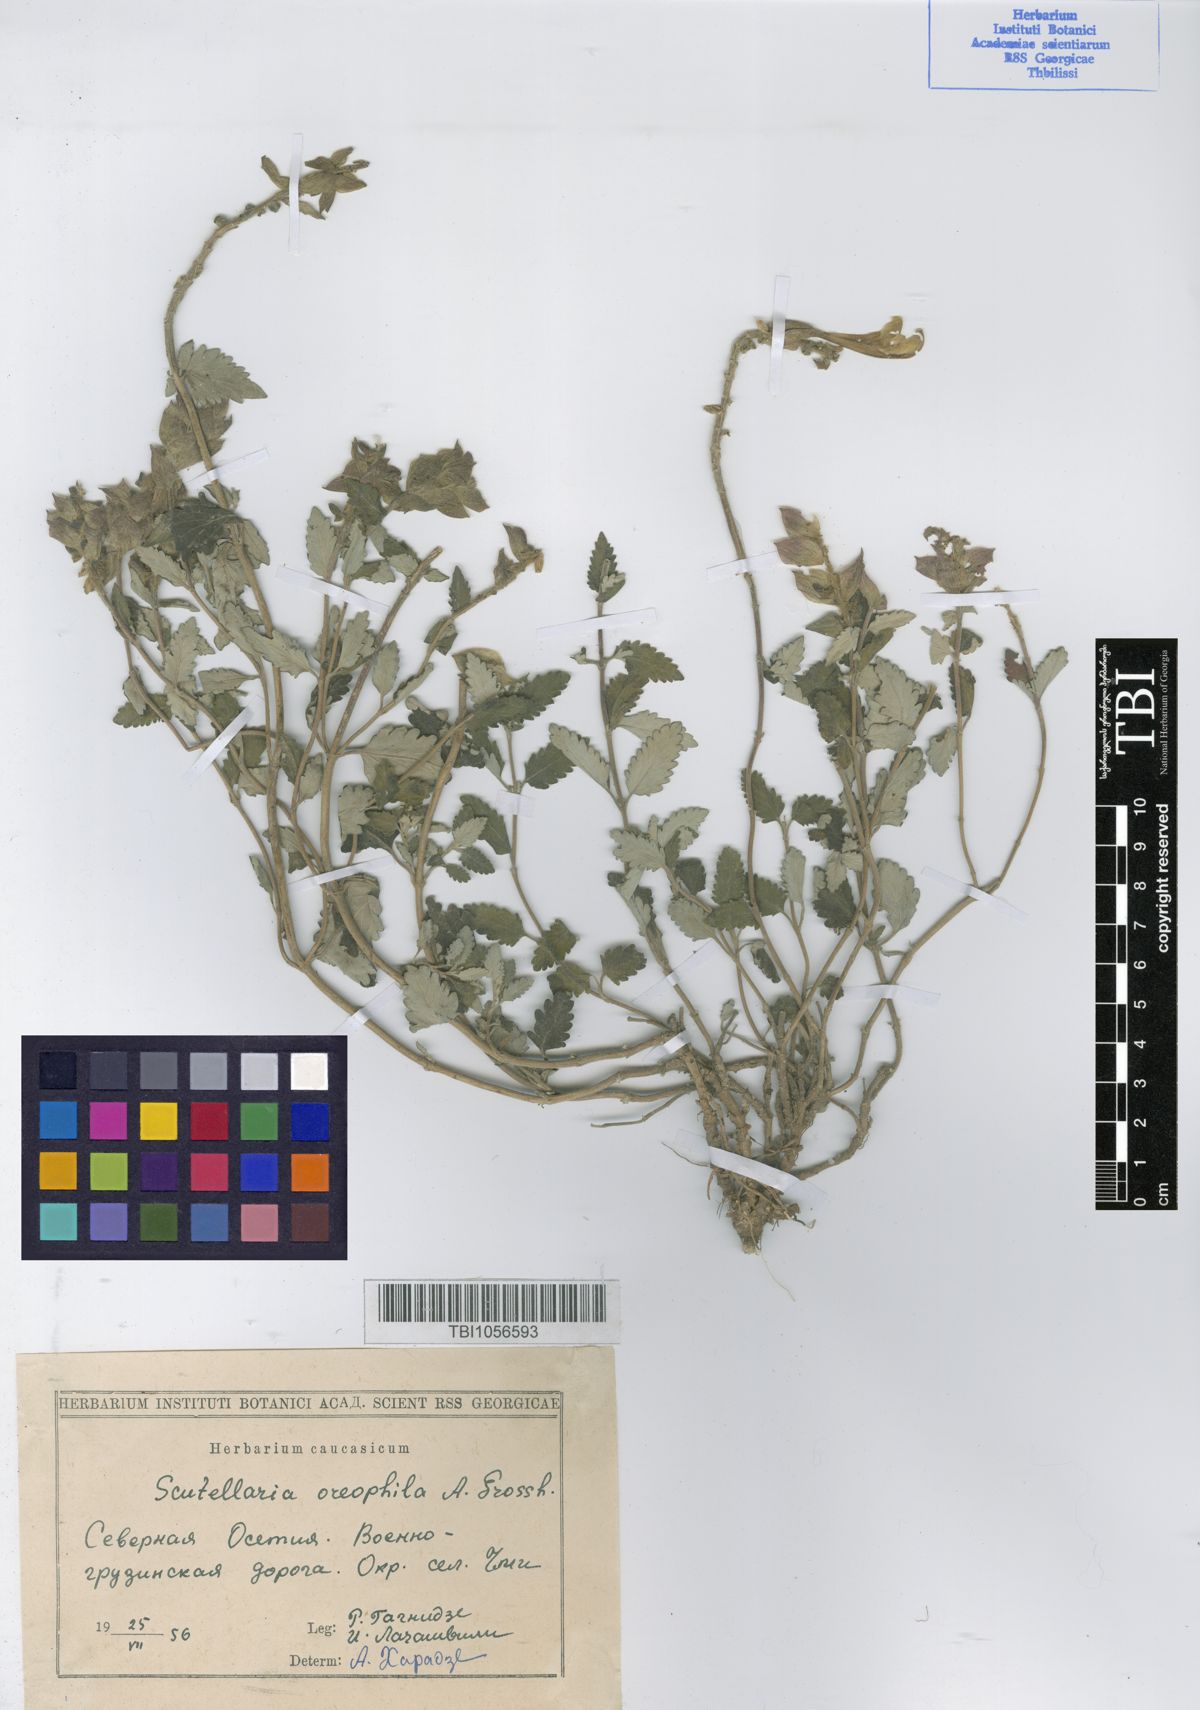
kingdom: Plantae
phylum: Tracheophyta
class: Magnoliopsida
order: Lamiales
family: Lamiaceae
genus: Scutellaria
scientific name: Scutellaria oreophila
